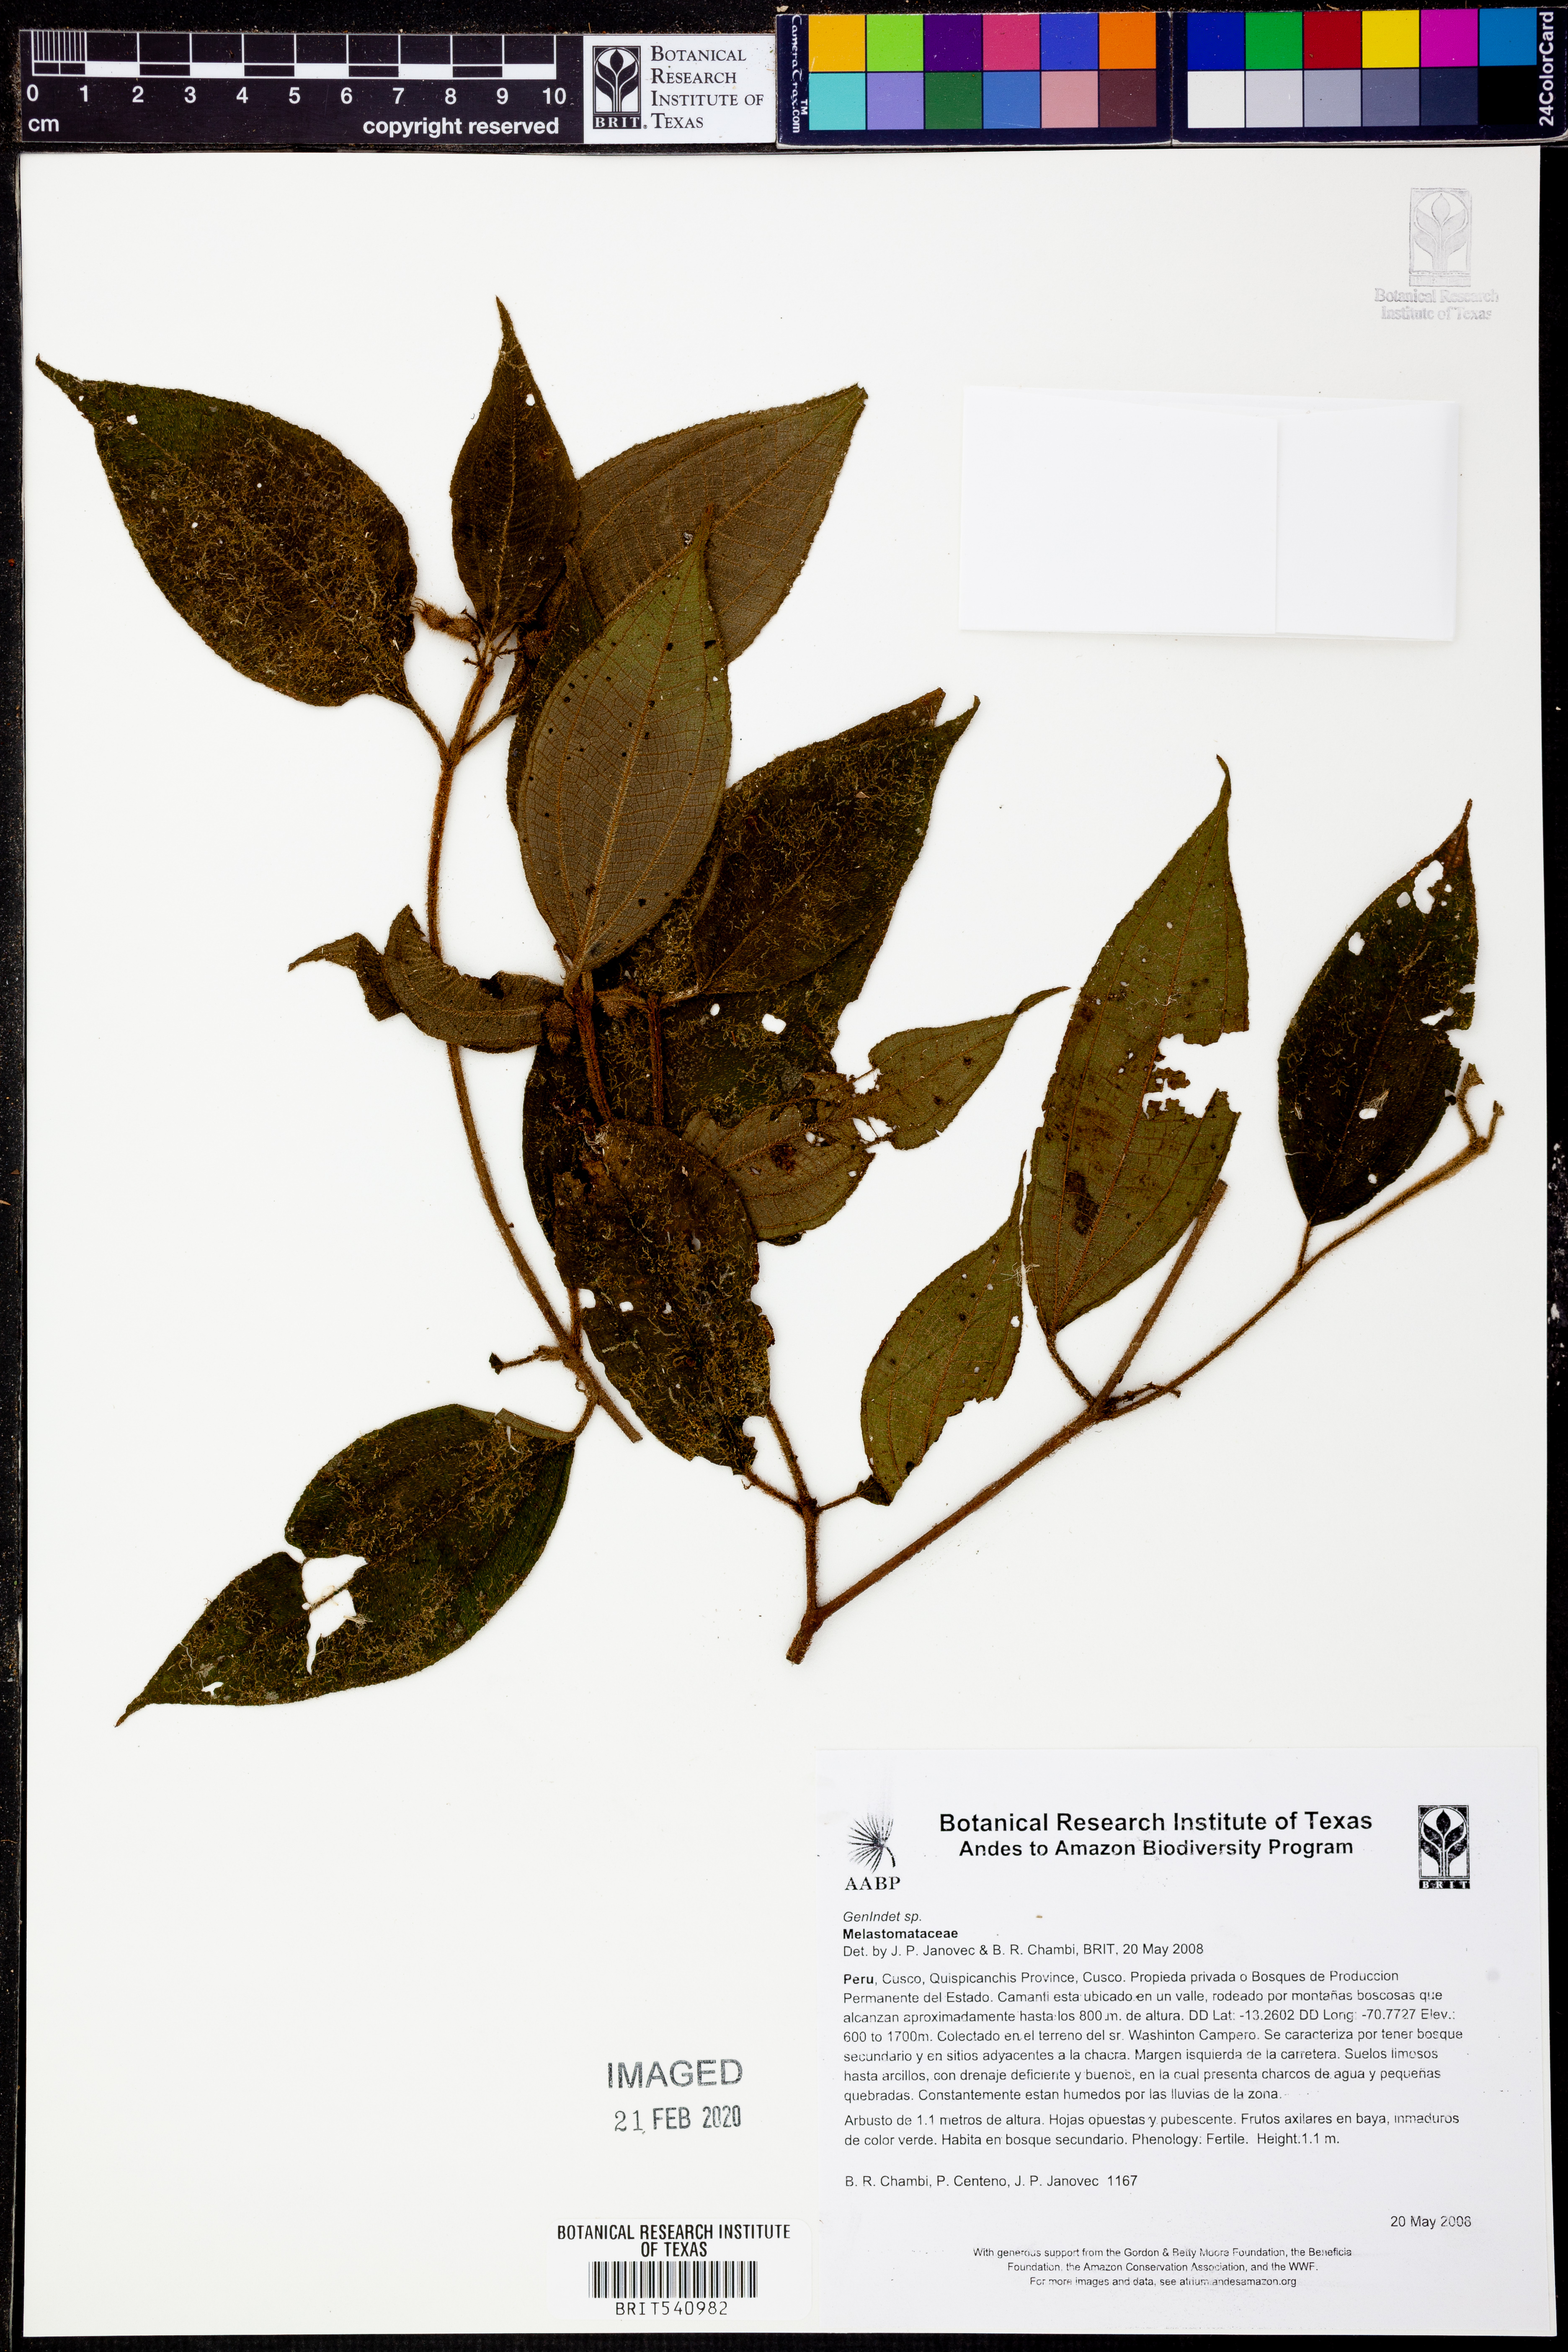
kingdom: Plantae
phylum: Tracheophyta
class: Magnoliopsida
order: Myrtales
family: Melastomataceae
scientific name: Melastomataceae
